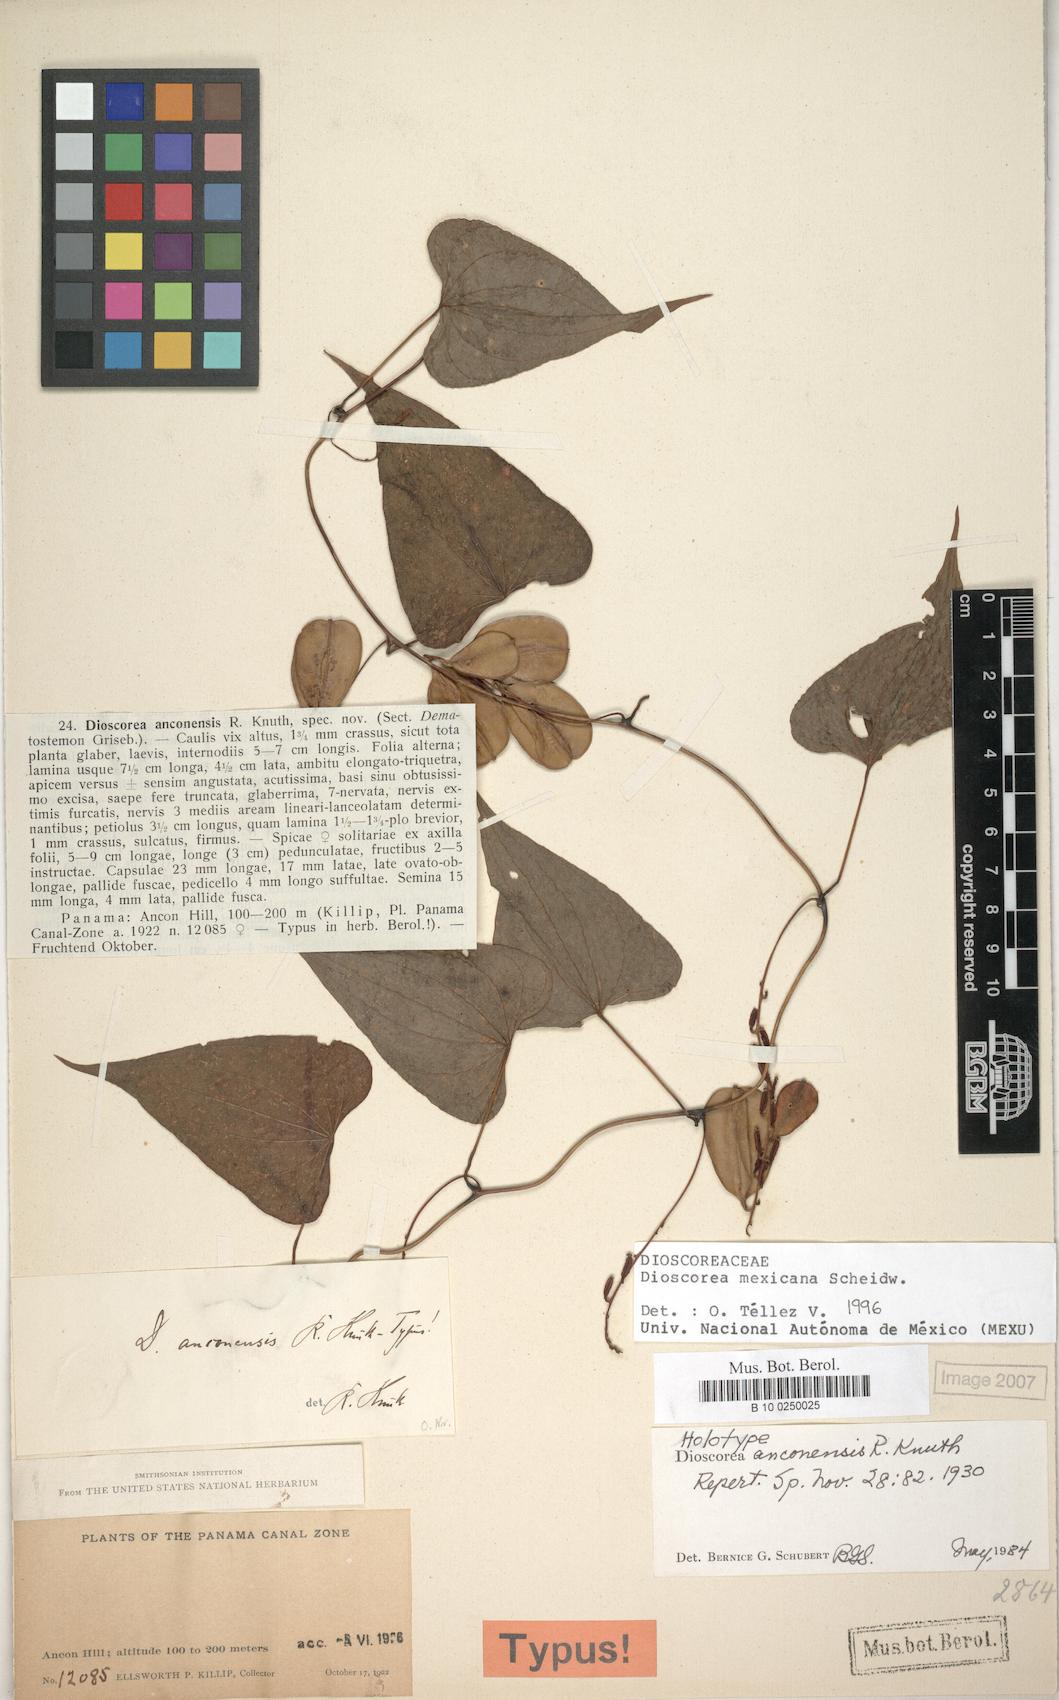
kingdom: Plantae
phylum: Tracheophyta
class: Liliopsida
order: Dioscoreales
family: Dioscoreaceae
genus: Dioscorea
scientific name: Dioscorea mexicana
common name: Mexican yam
